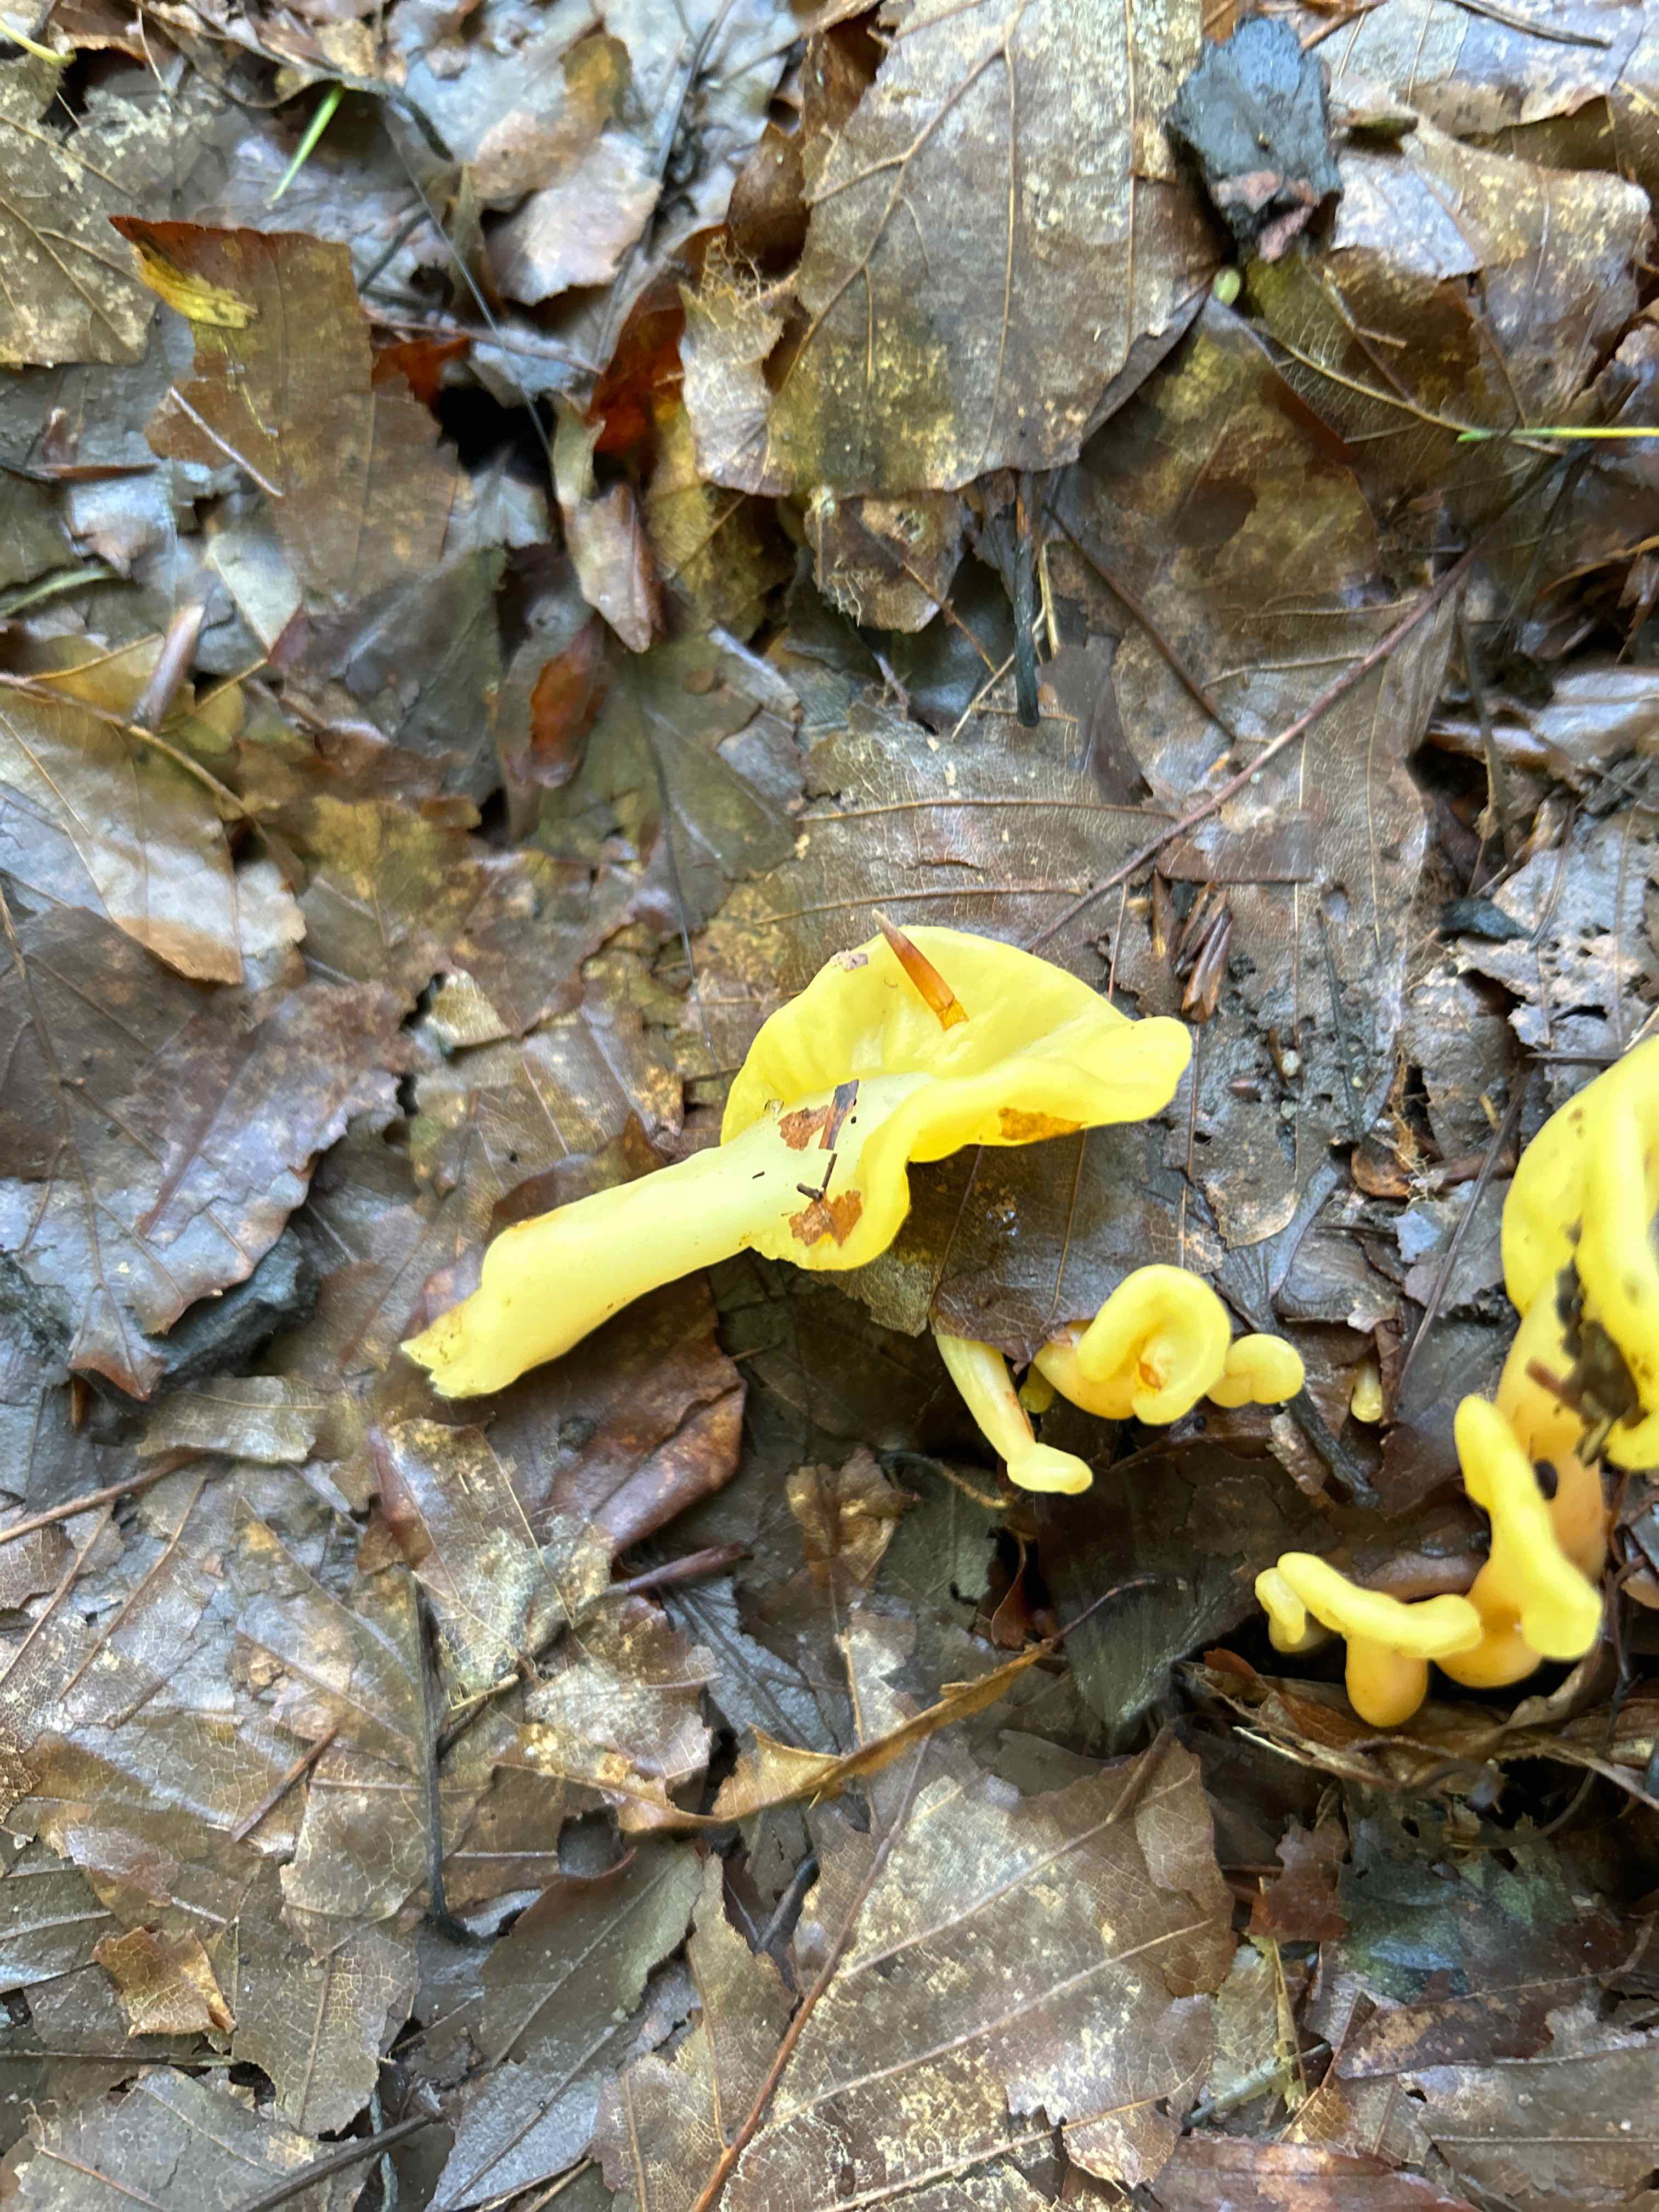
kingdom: Fungi
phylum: Ascomycota
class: Leotiomycetes
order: Rhytismatales
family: Cudoniaceae
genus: Spathularia
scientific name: Spathularia flavida
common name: gul spatelsvamp
